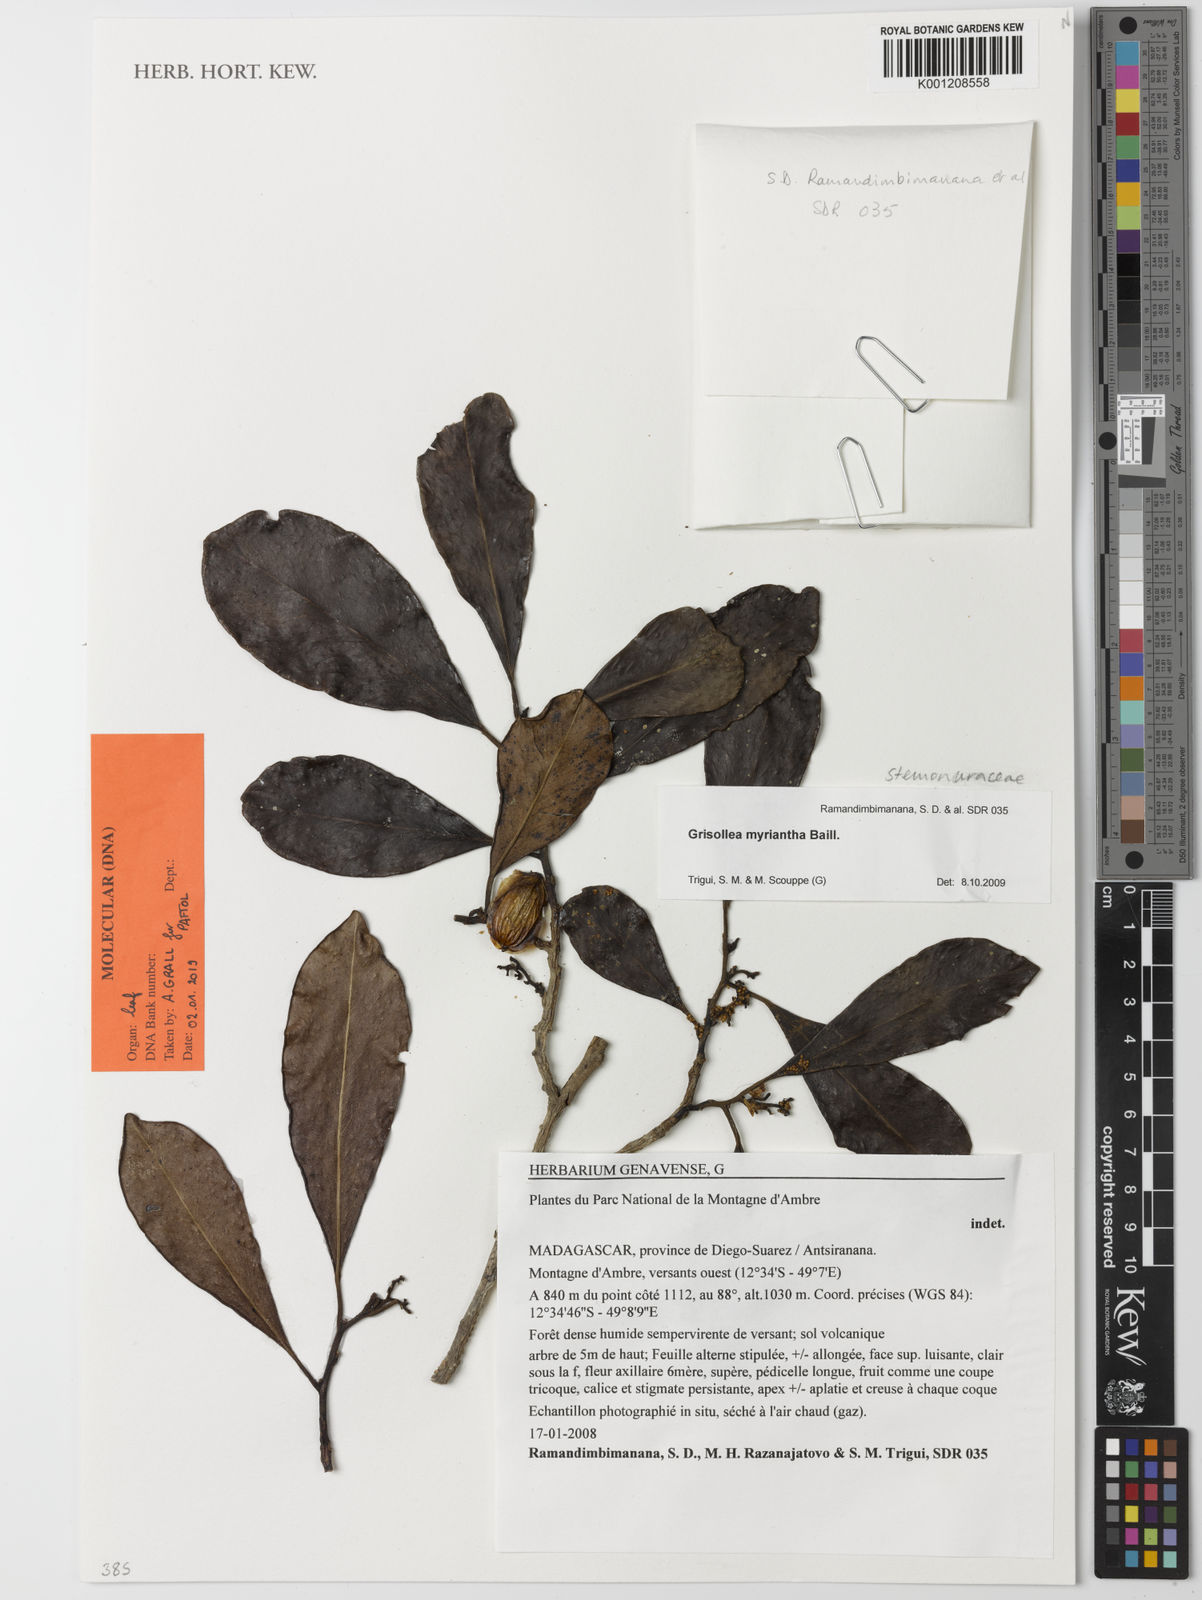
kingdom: Plantae
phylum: Tracheophyta
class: Magnoliopsida
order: Cardiopteridales
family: Stemonuraceae
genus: Grisollea
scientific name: Grisollea myriantha
